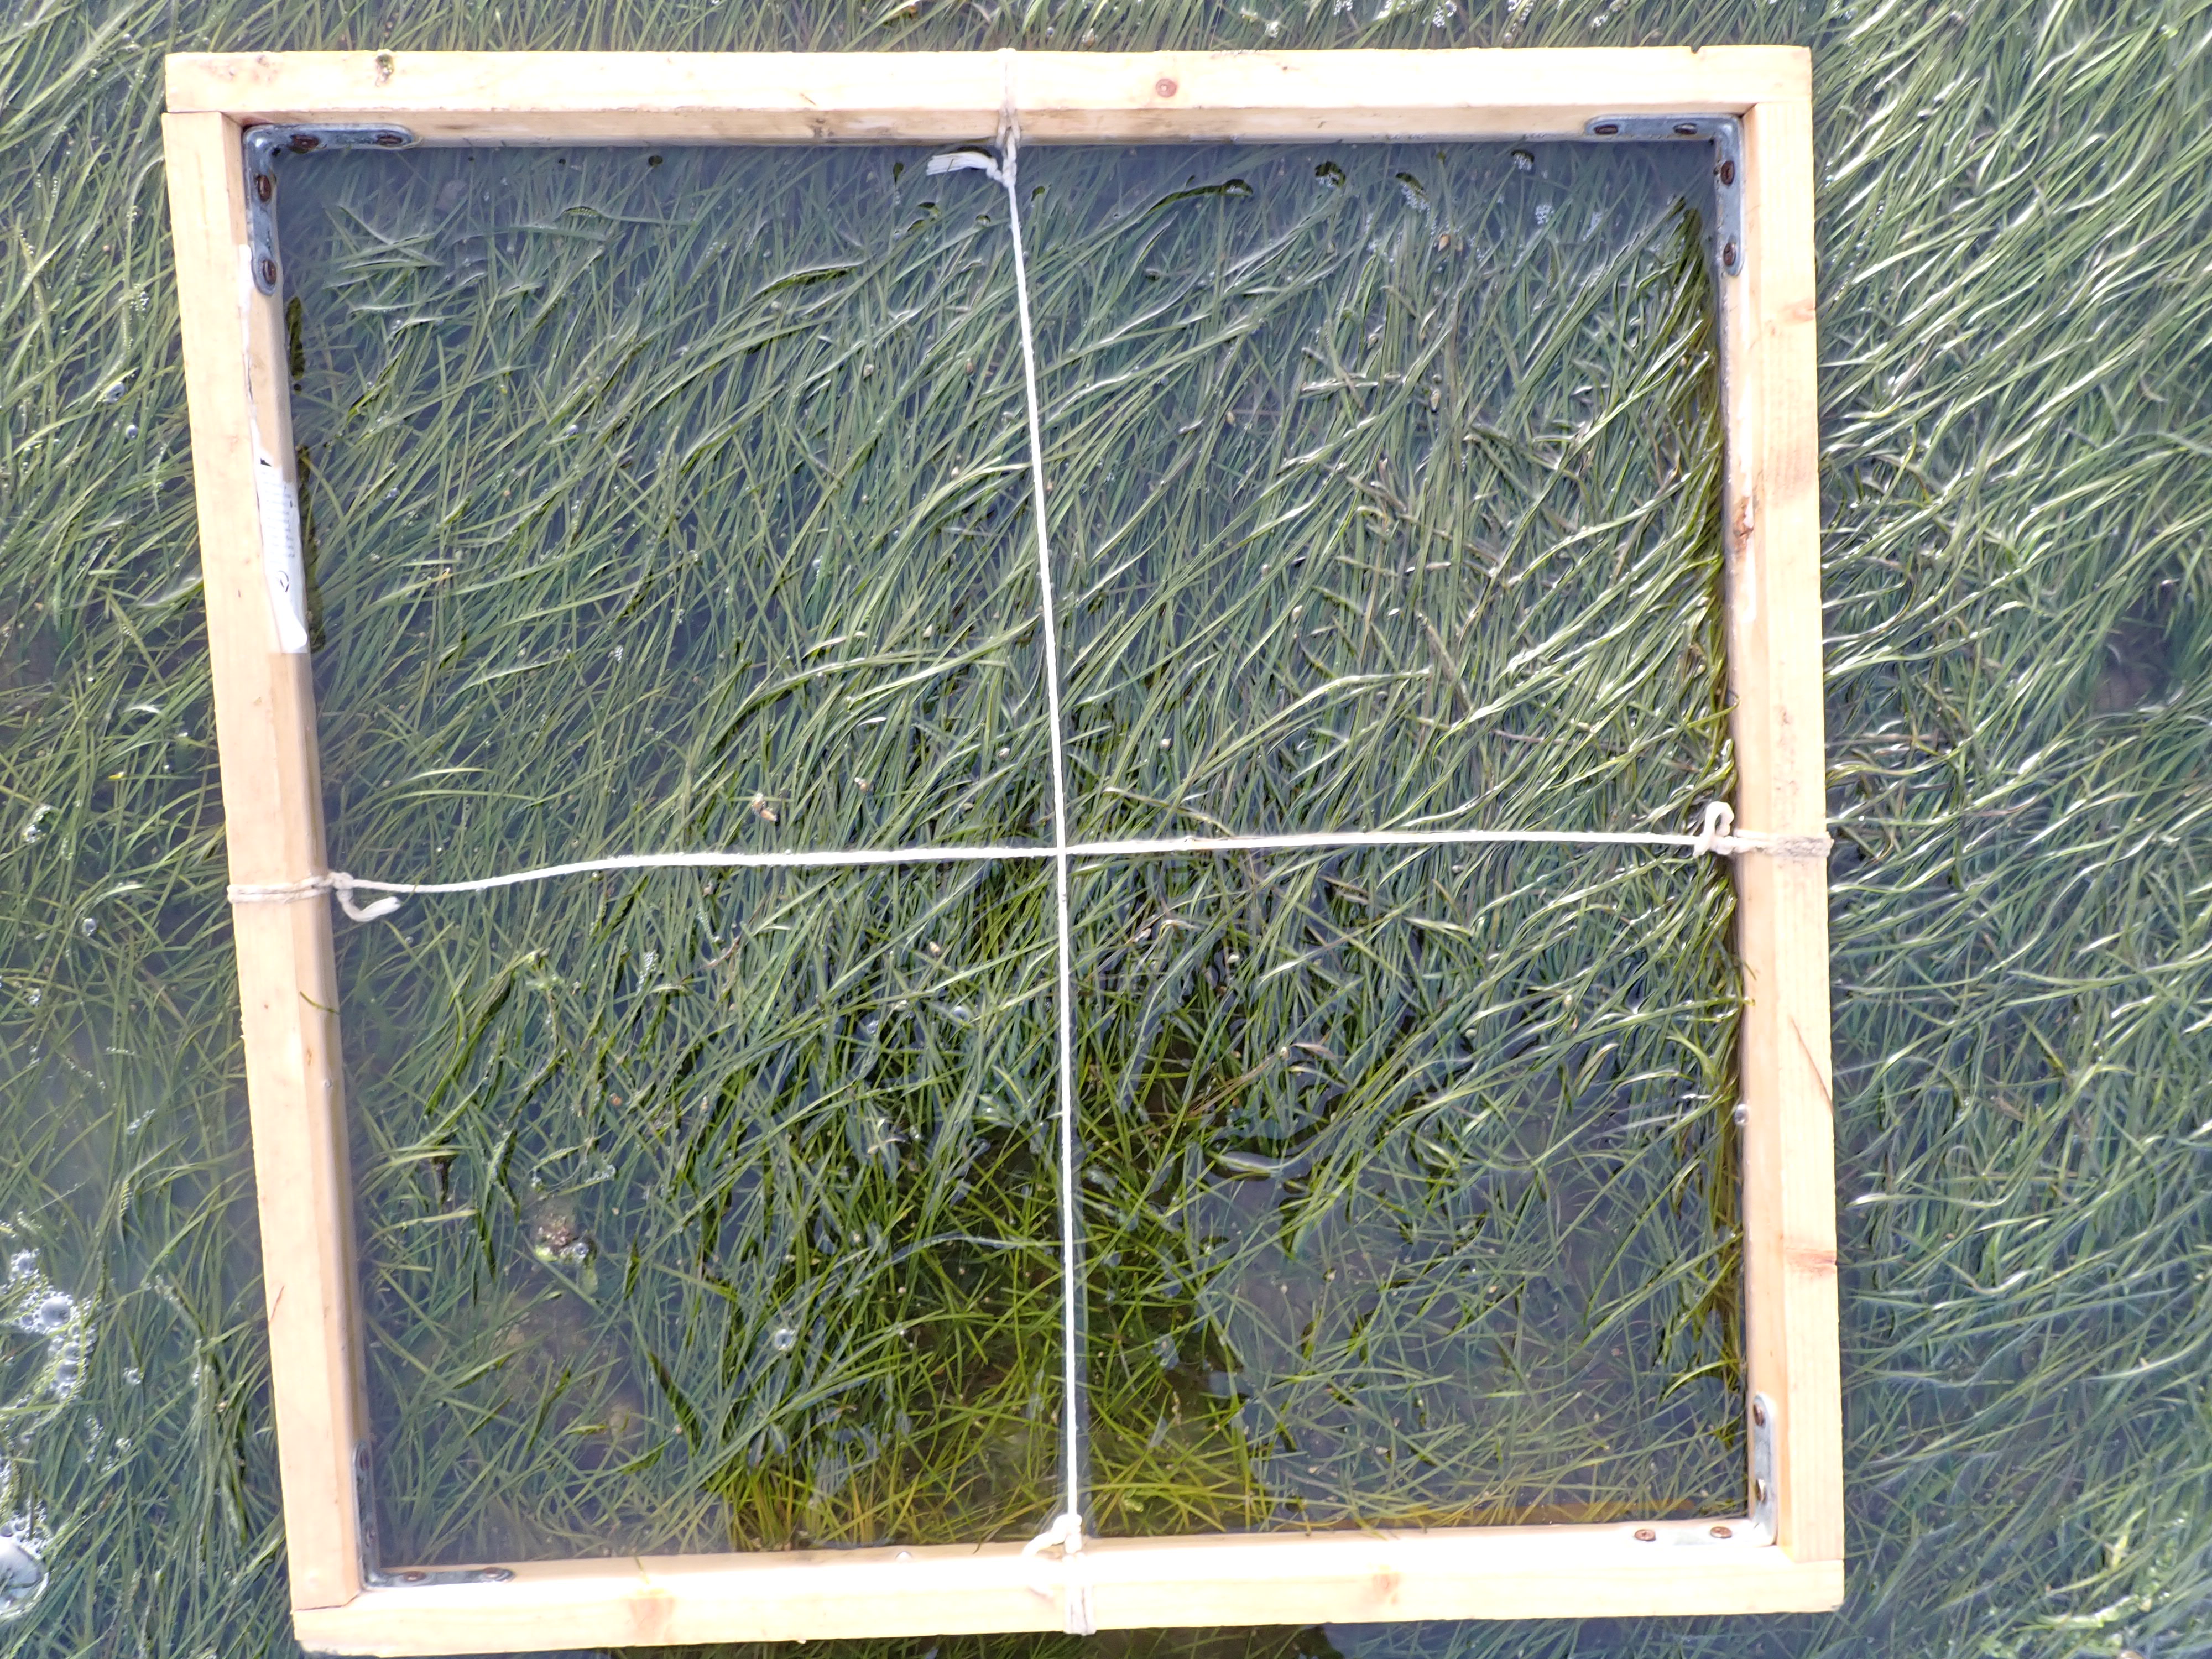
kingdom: Plantae
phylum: Tracheophyta
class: Liliopsida
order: Alismatales
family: Zosteraceae
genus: Zostera
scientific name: Zostera noltii
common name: Dwarf eelgrass
